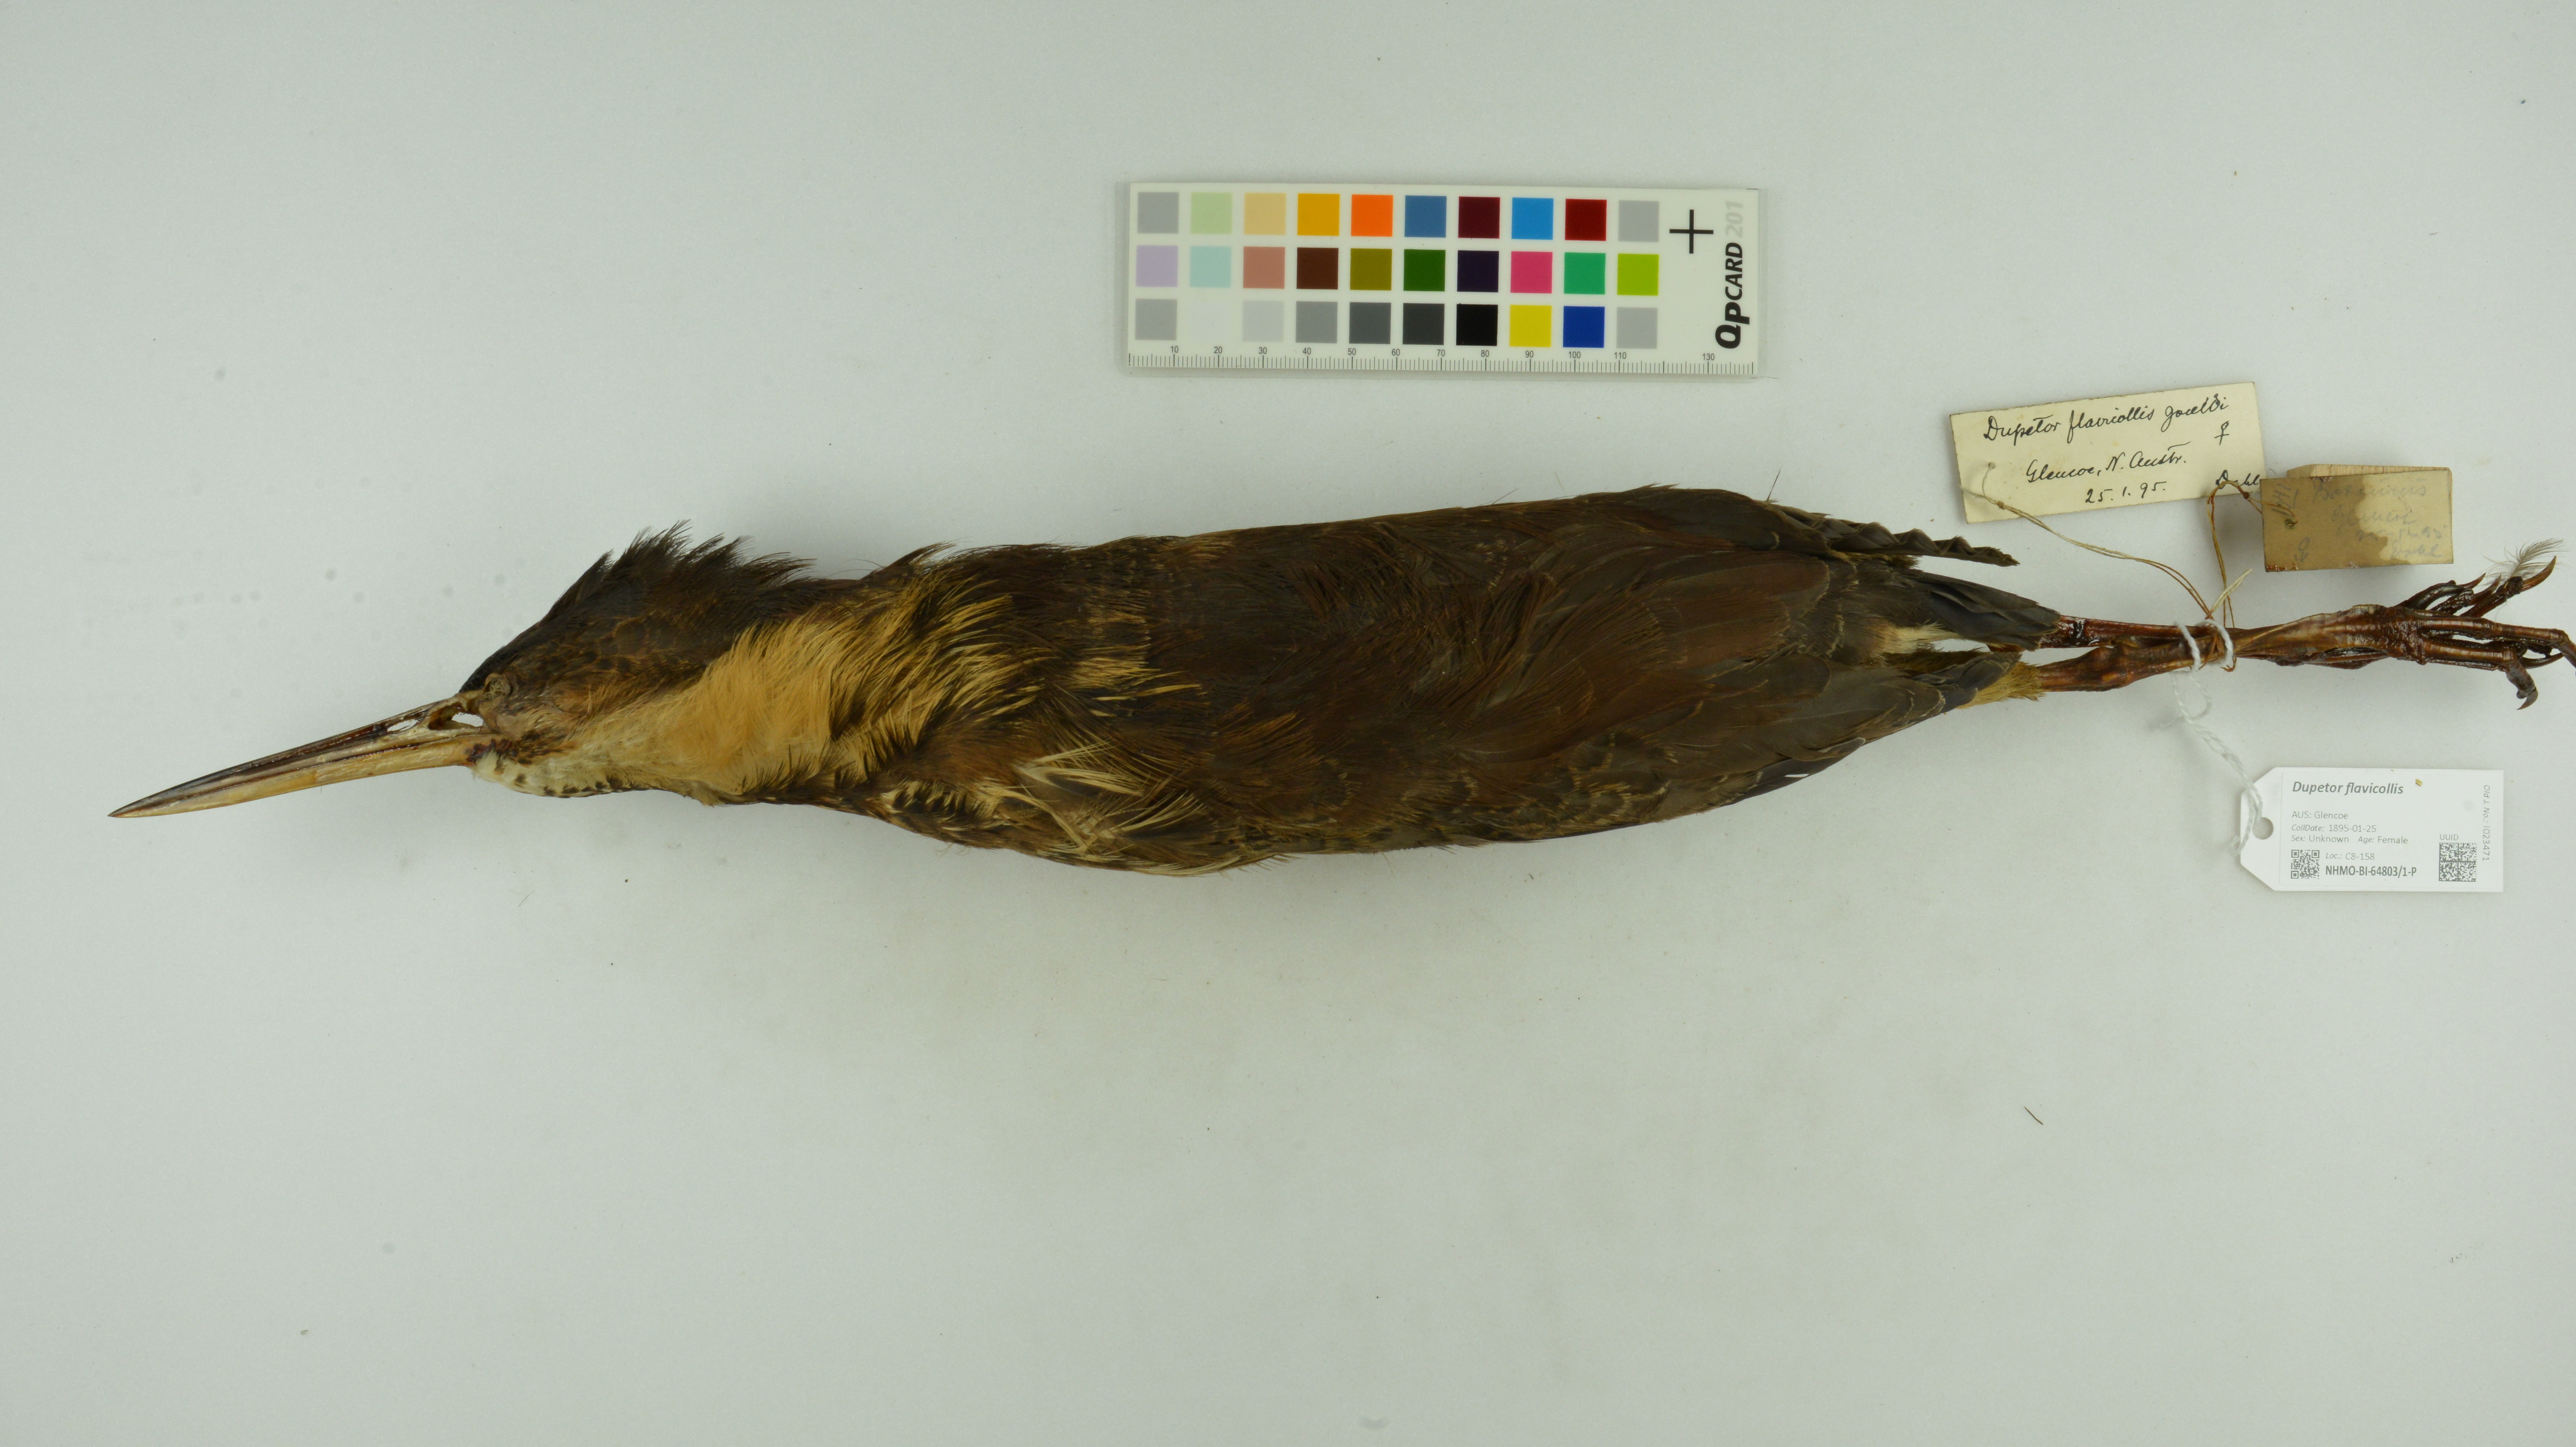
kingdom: Animalia
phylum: Chordata
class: Aves
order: Pelecaniformes
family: Ardeidae
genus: Dupetor
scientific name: Dupetor flavicollis
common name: Black bittern
